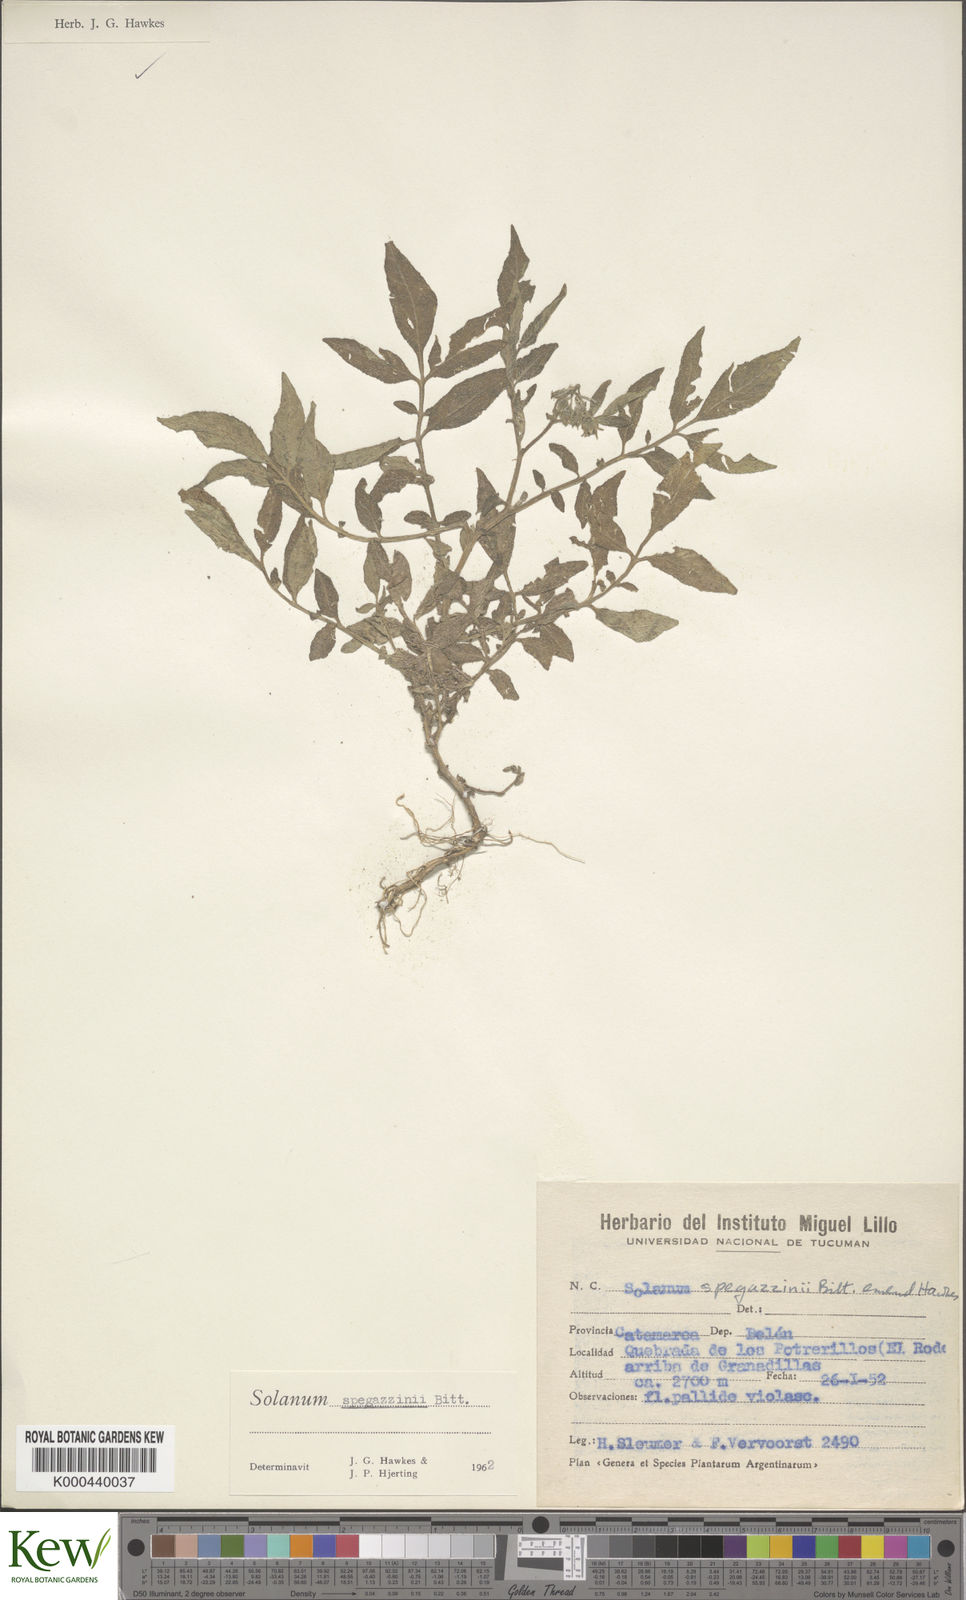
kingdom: Plantae
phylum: Tracheophyta
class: Magnoliopsida
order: Solanales
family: Solanaceae
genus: Solanum
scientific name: Solanum brevicaule
